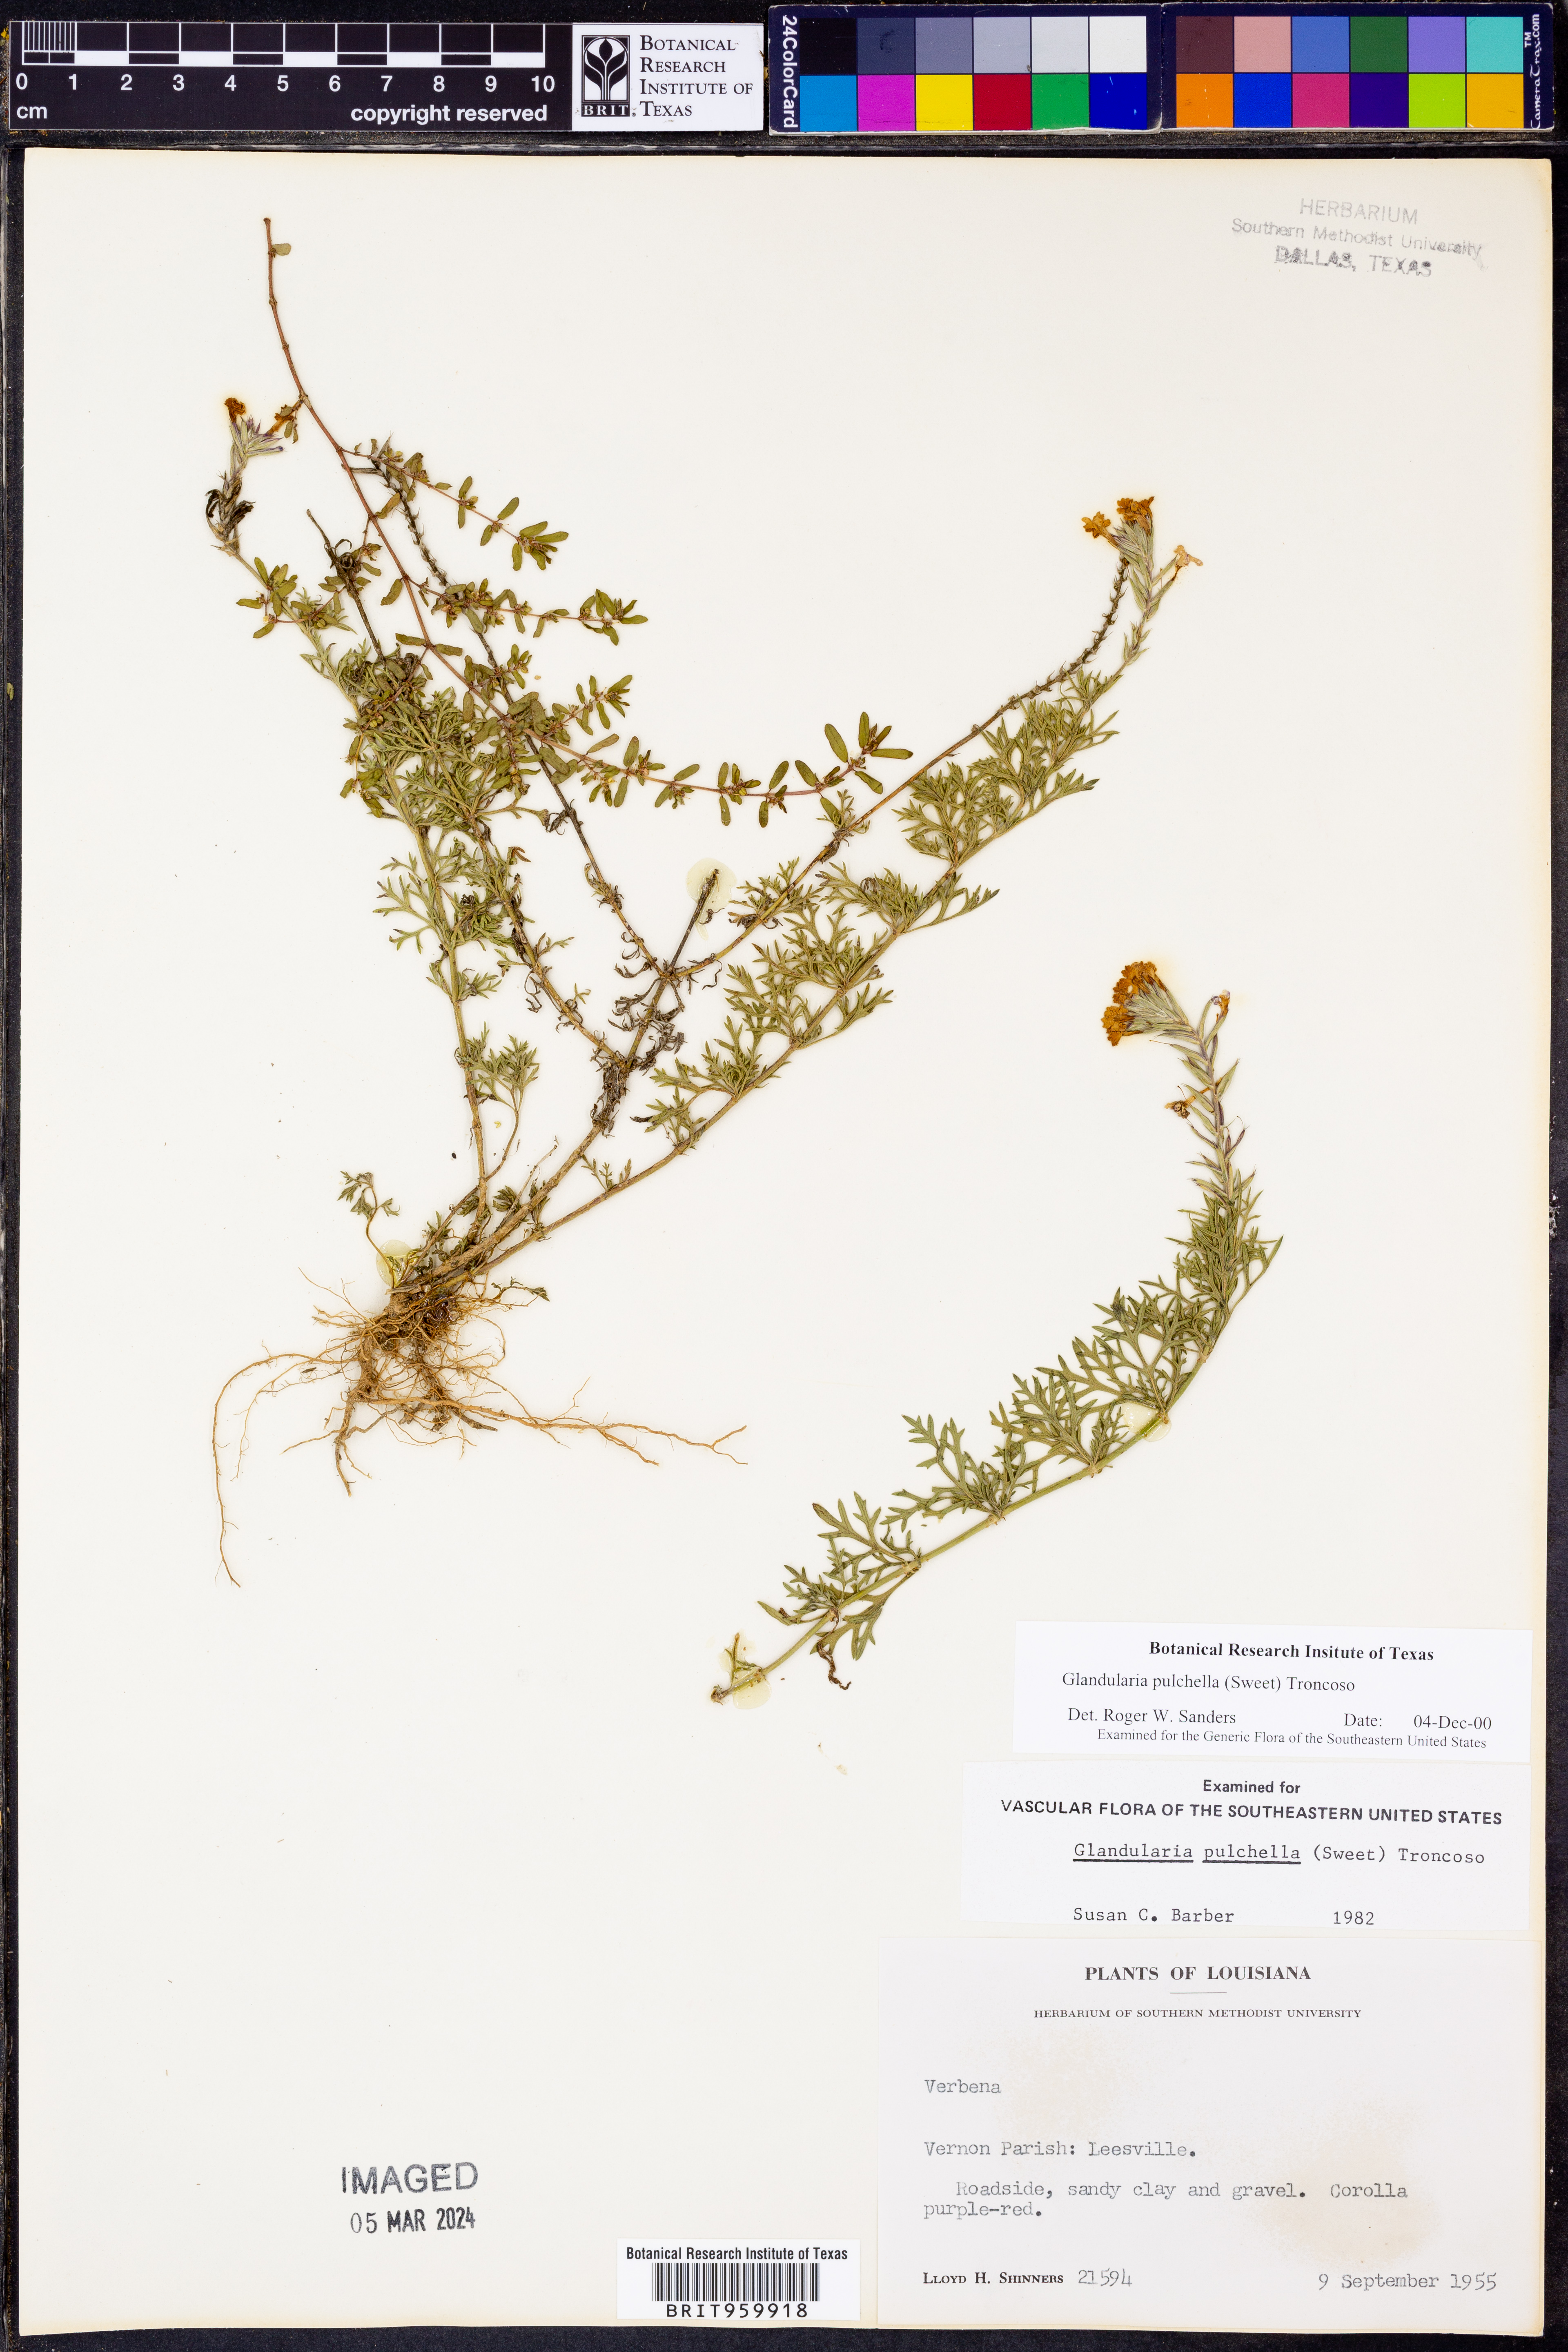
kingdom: Plantae
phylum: Tracheophyta
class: Magnoliopsida
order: Lamiales
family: Verbenaceae
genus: Verbena
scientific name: Verbena tenera
